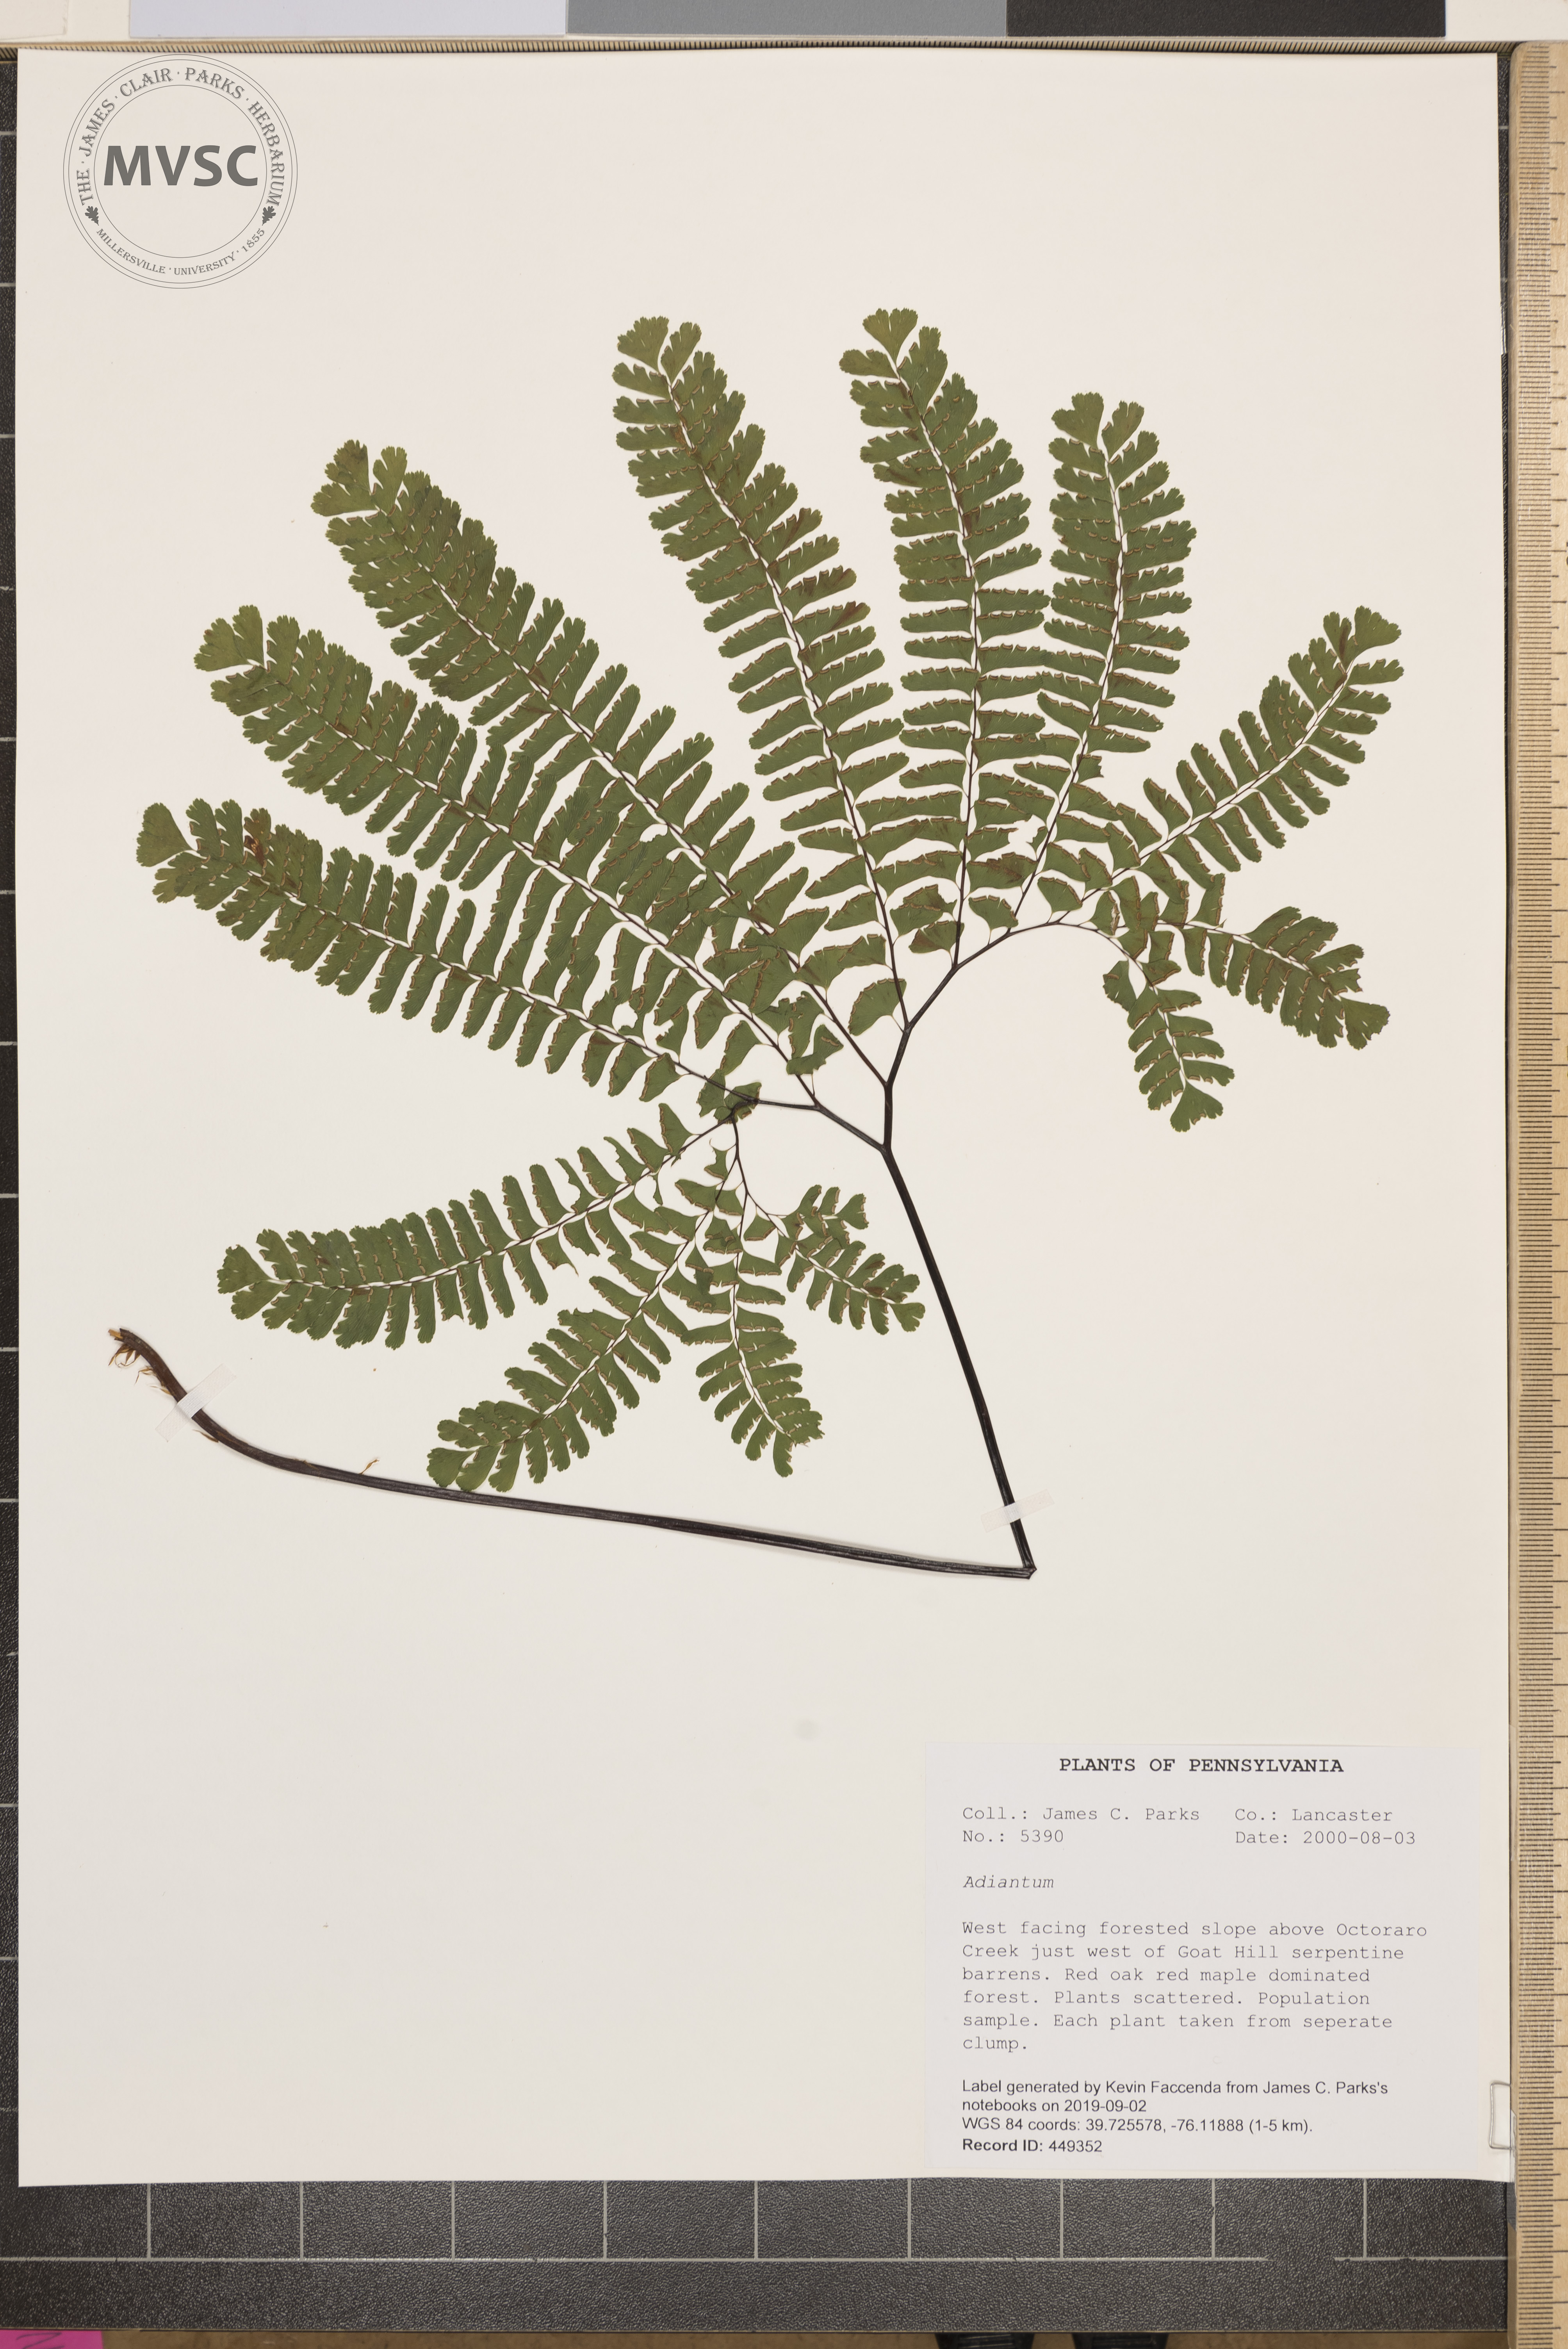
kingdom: Plantae
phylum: Tracheophyta
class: Polypodiopsida
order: Polypodiales
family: Pteridaceae
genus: Adiantum
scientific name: Adiantum
